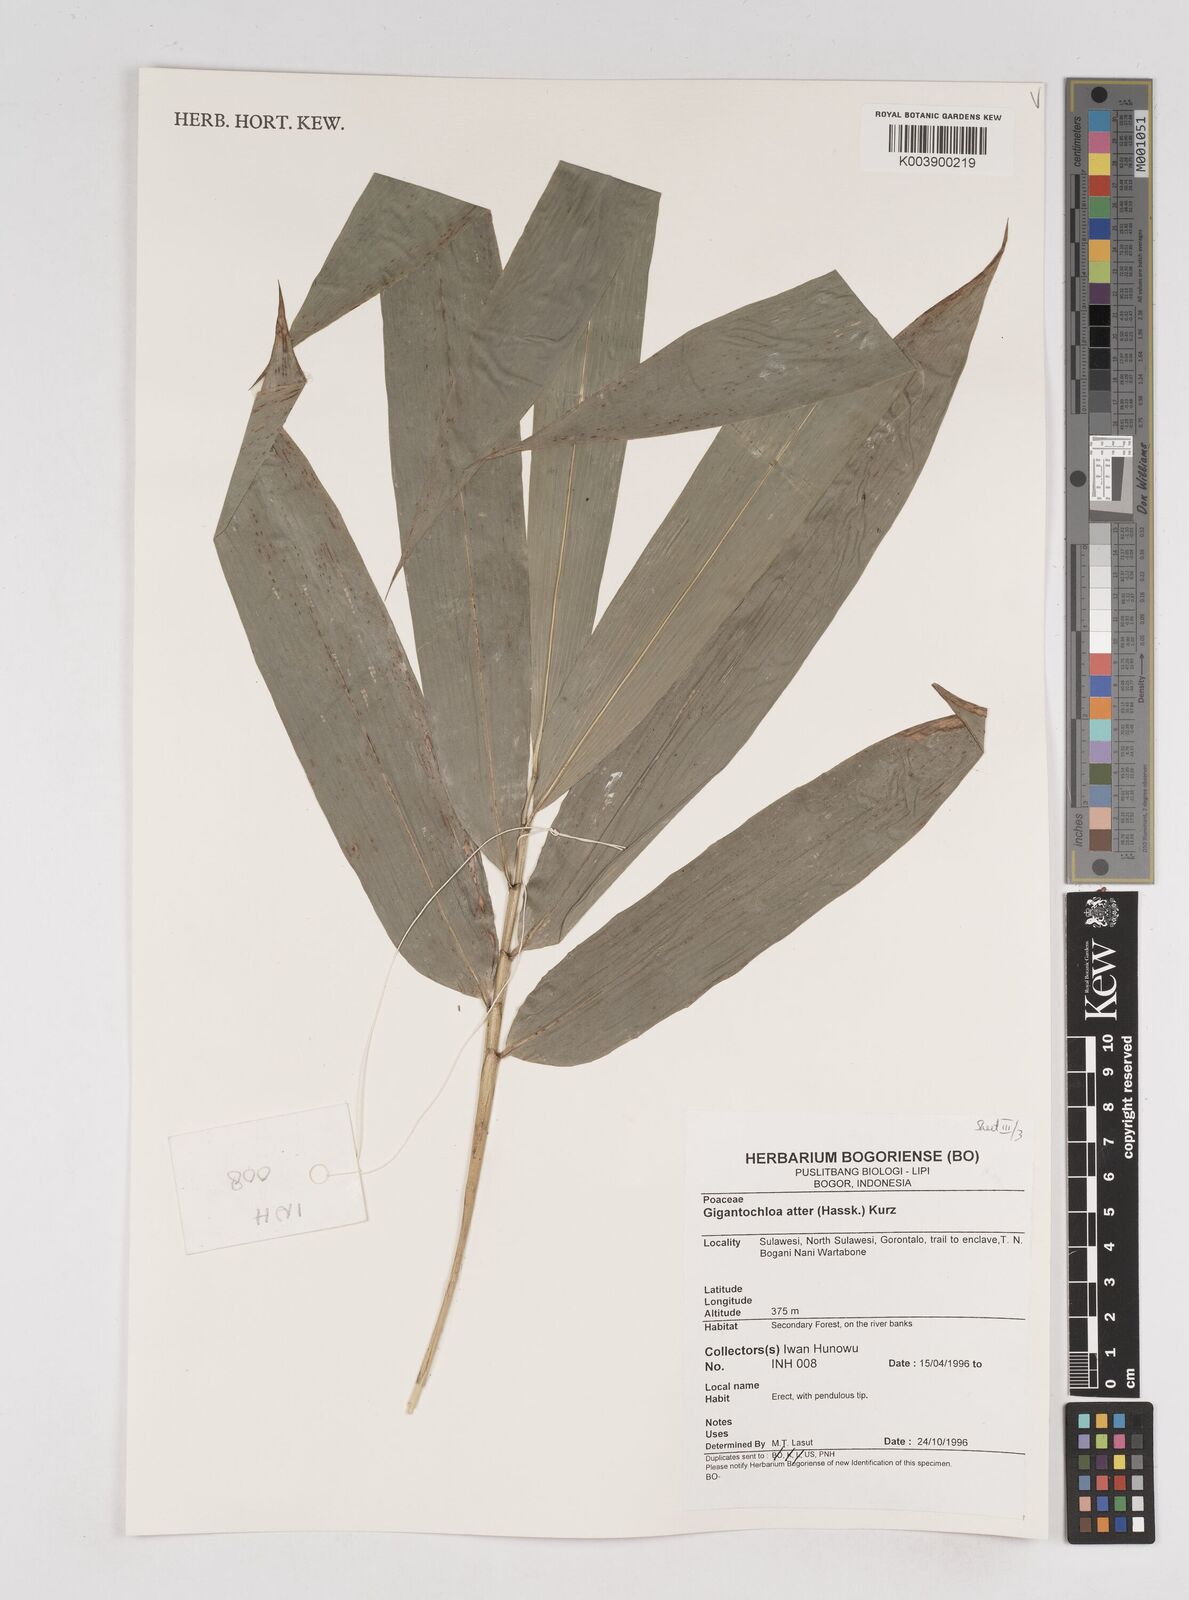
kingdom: Plantae
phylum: Tracheophyta
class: Liliopsida
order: Poales
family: Poaceae
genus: Gigantochloa
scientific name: Gigantochloa atter
